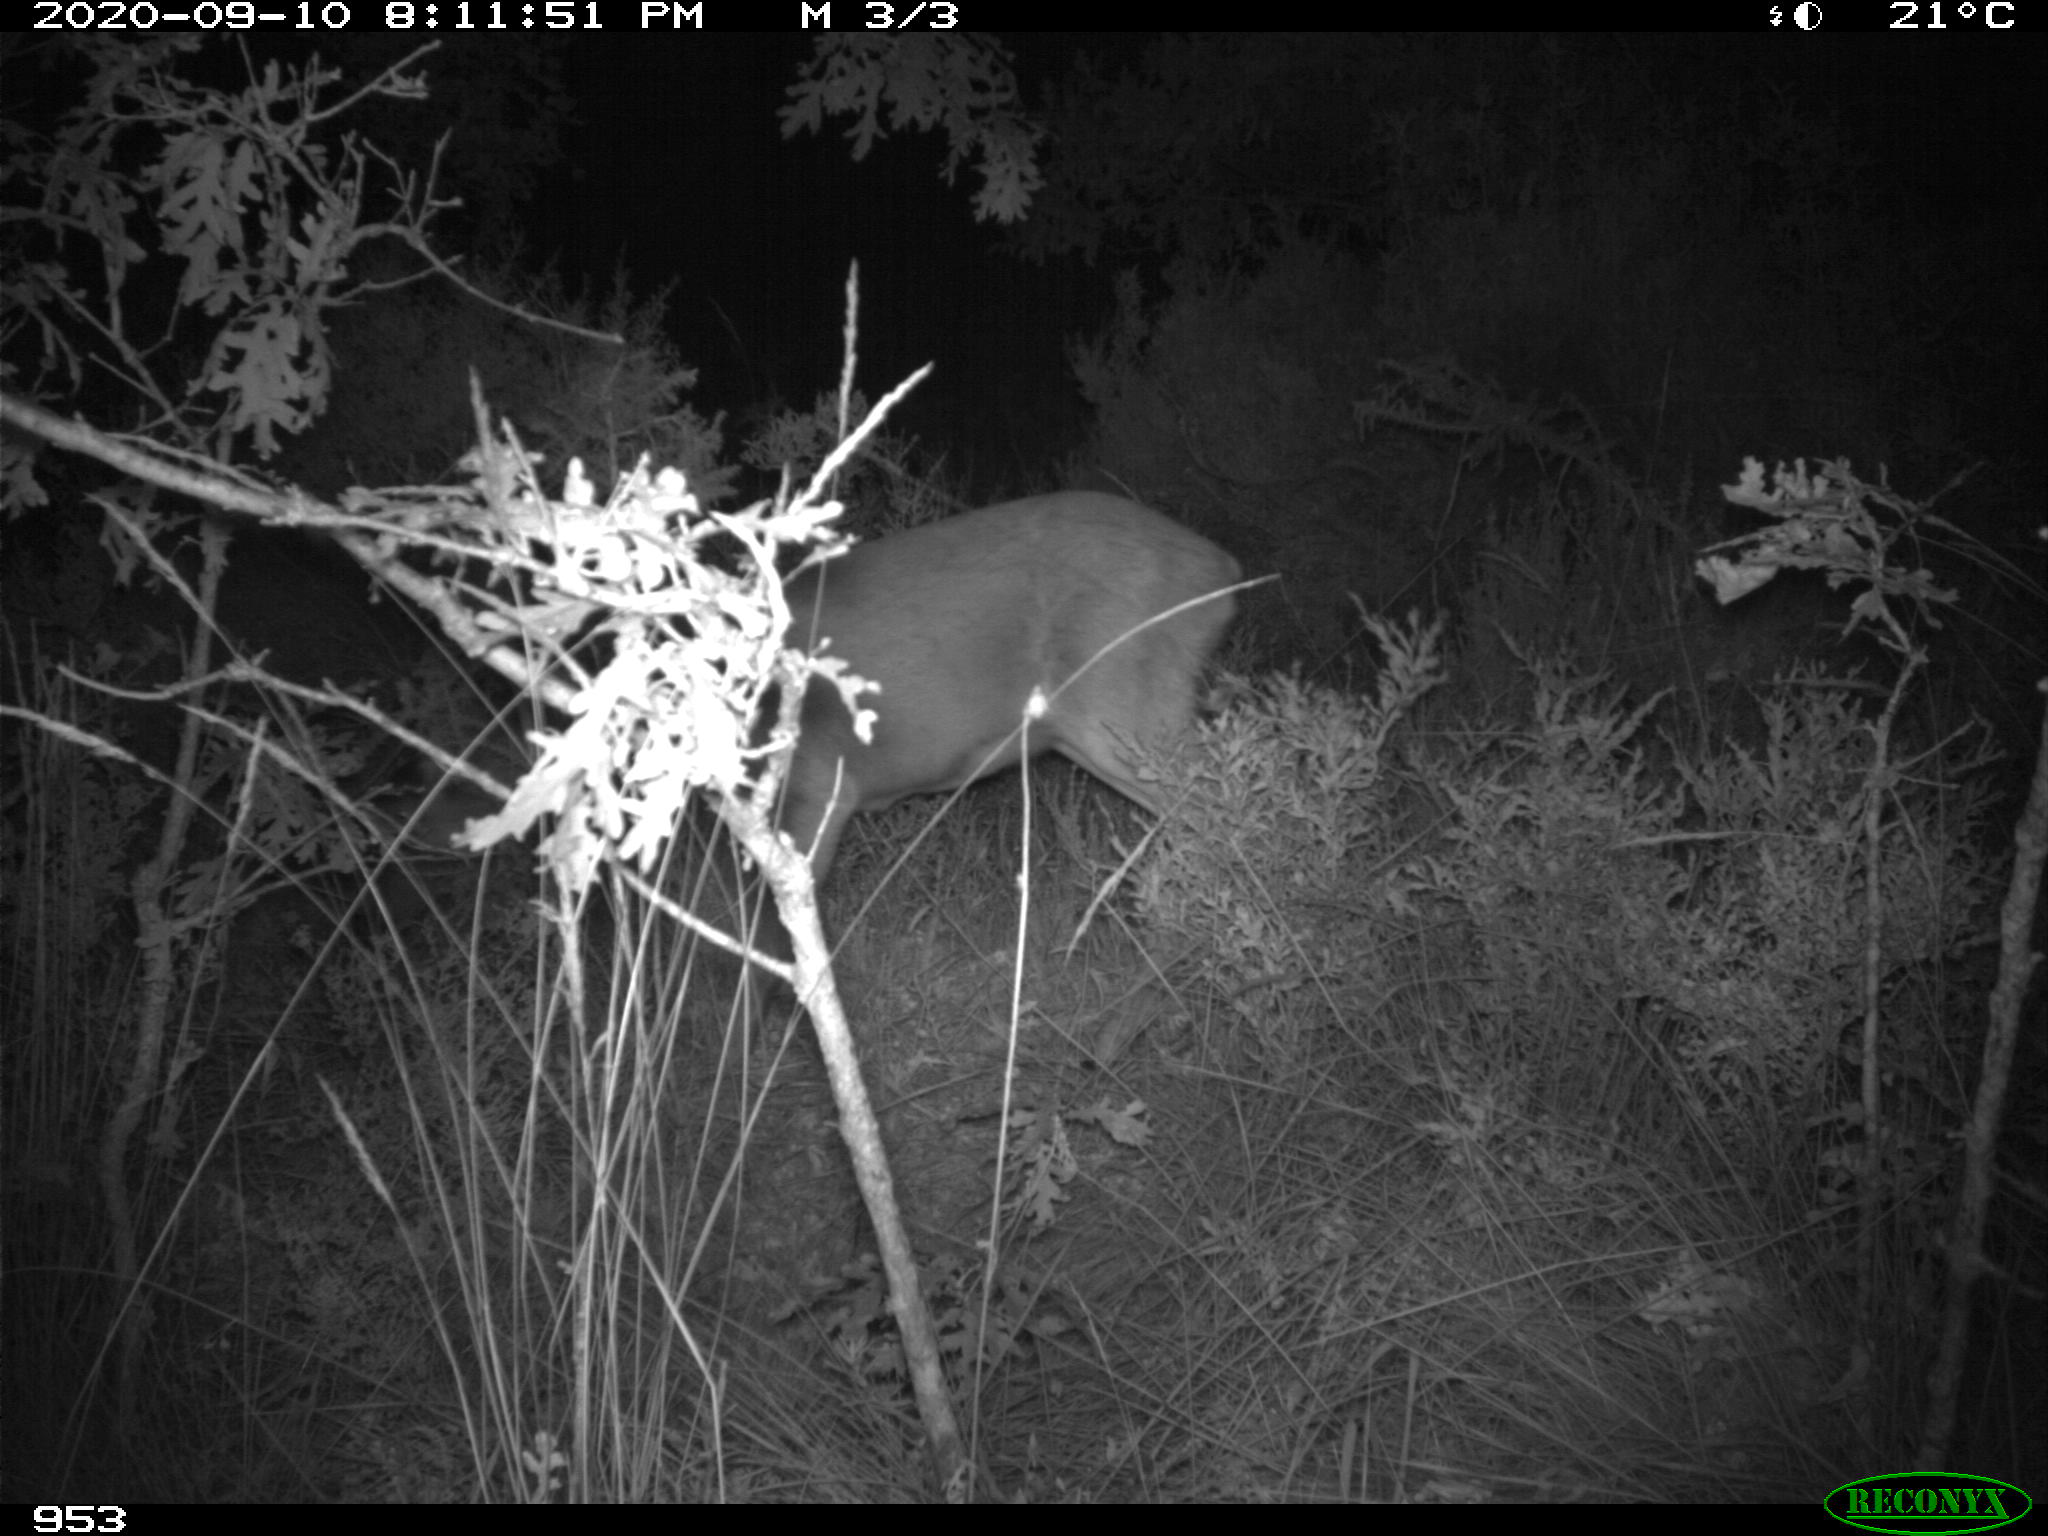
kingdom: Animalia
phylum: Chordata
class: Mammalia
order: Artiodactyla
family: Cervidae
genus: Capreolus
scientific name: Capreolus capreolus
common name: Western roe deer
